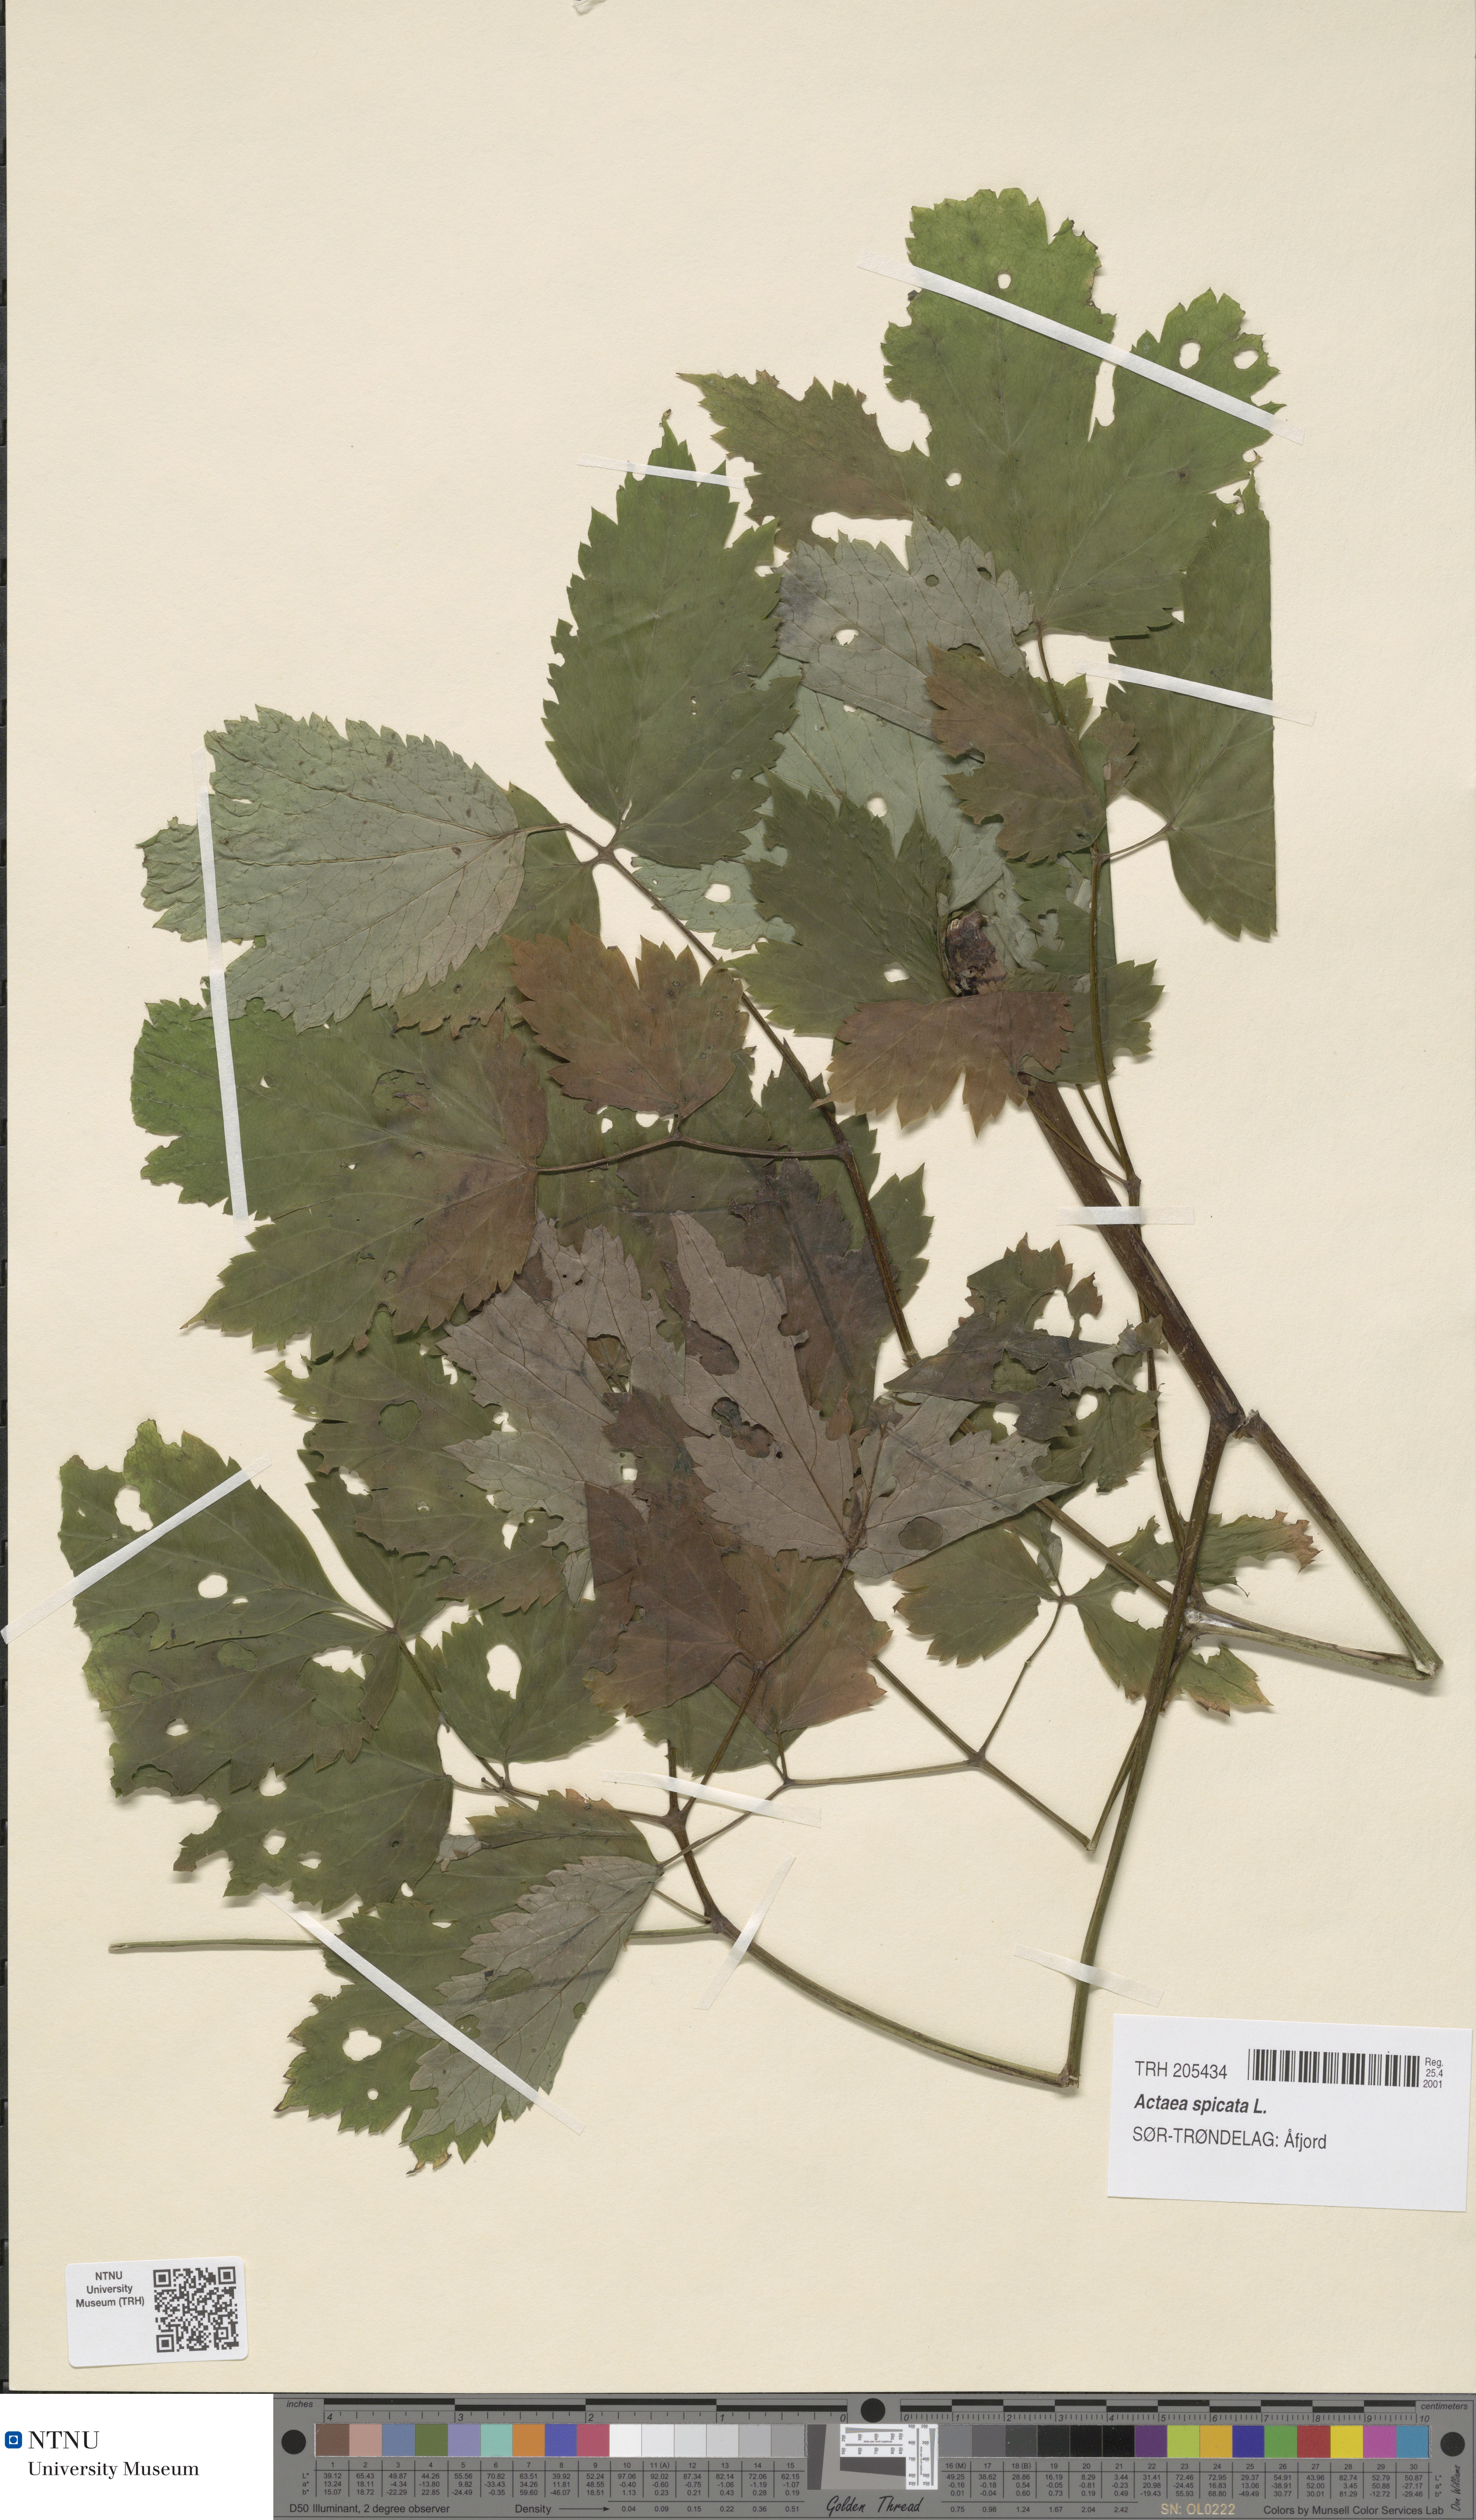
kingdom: Plantae
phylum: Tracheophyta
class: Magnoliopsida
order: Ranunculales
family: Ranunculaceae
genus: Actaea
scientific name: Actaea spicata
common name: Baneberry
